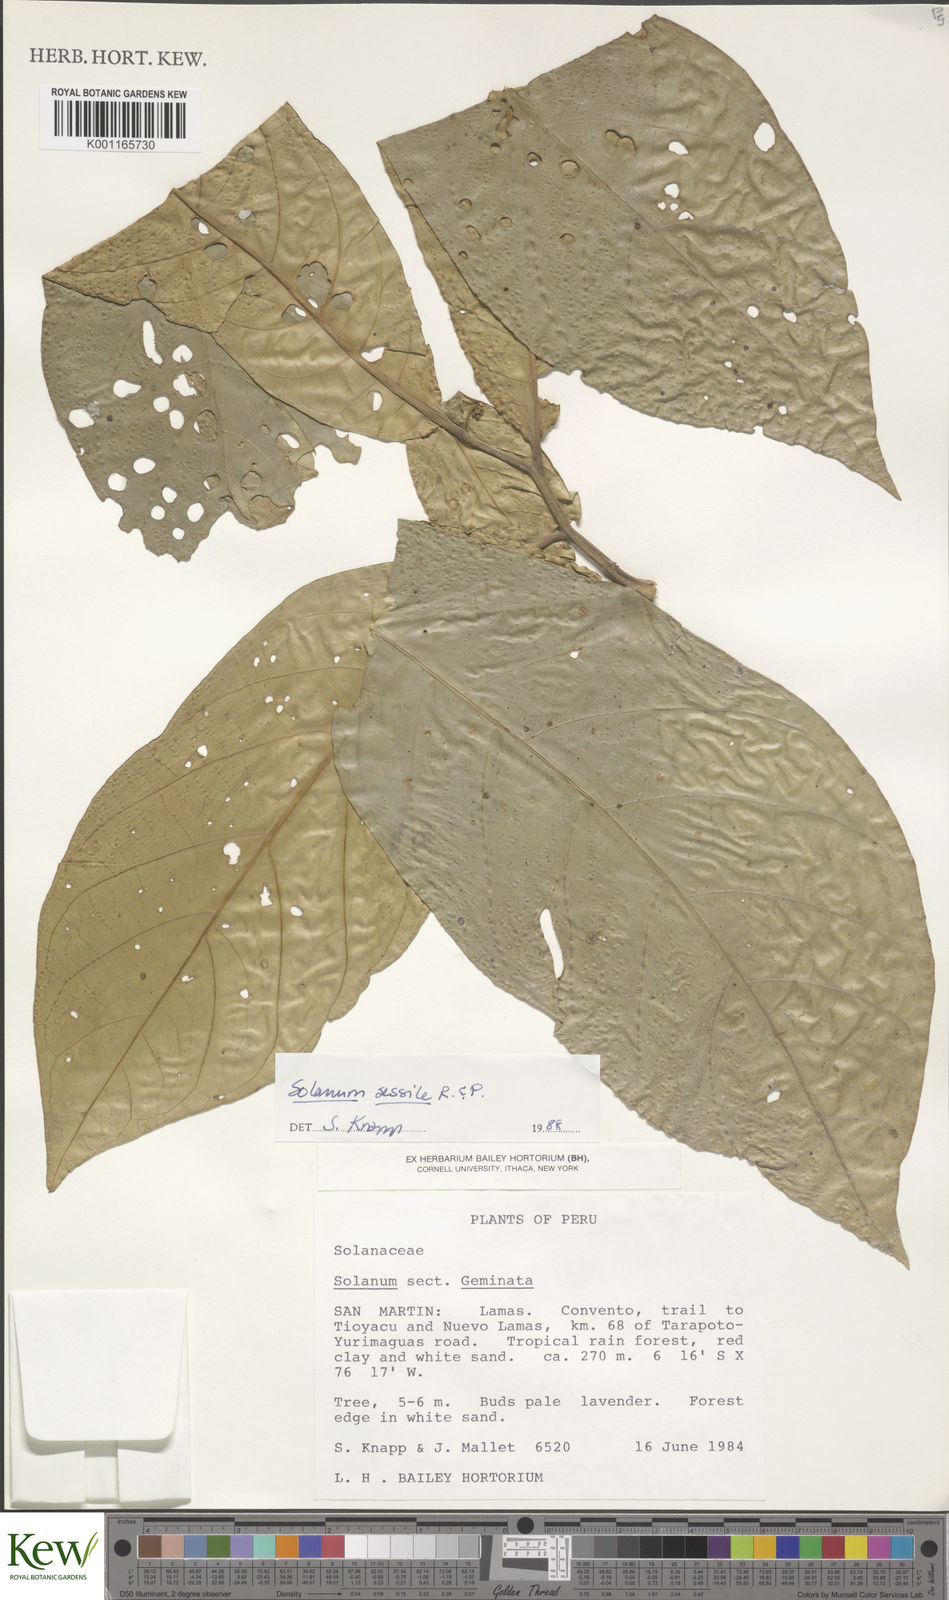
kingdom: Plantae
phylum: Tracheophyta
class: Magnoliopsida
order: Solanales
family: Solanaceae
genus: Solanum
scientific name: Solanum sessile
